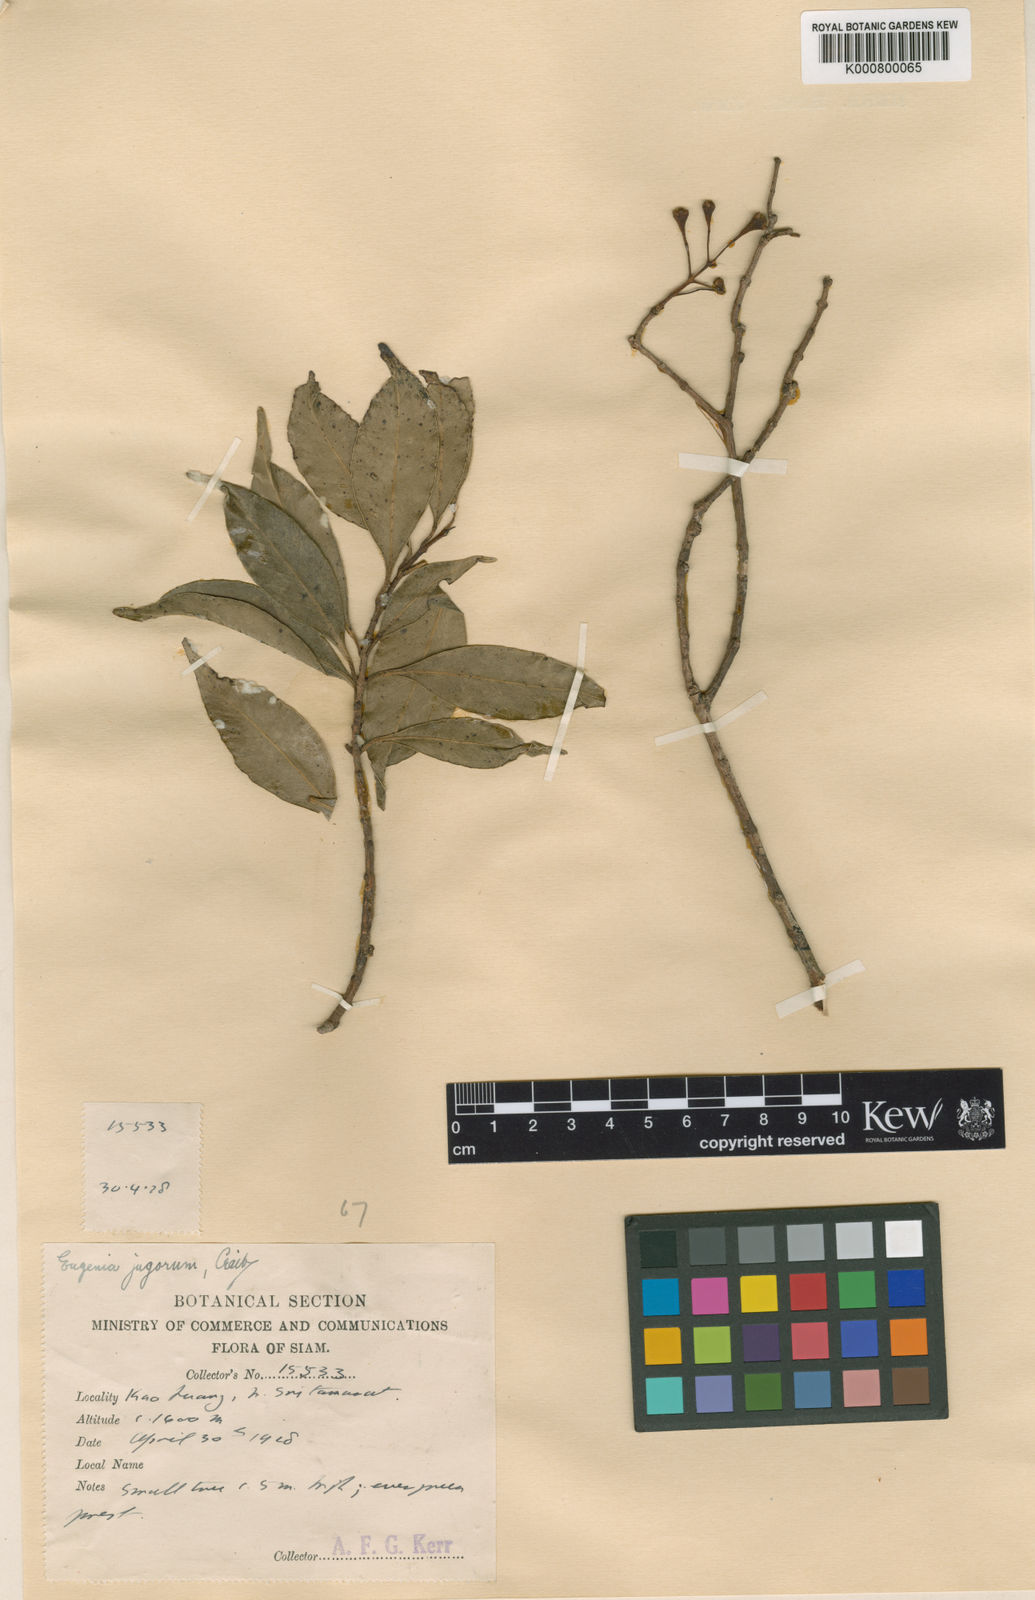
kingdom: Plantae
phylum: Tracheophyta
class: Magnoliopsida
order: Myrtales
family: Myrtaceae
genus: Syzygium
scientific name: Syzygium
